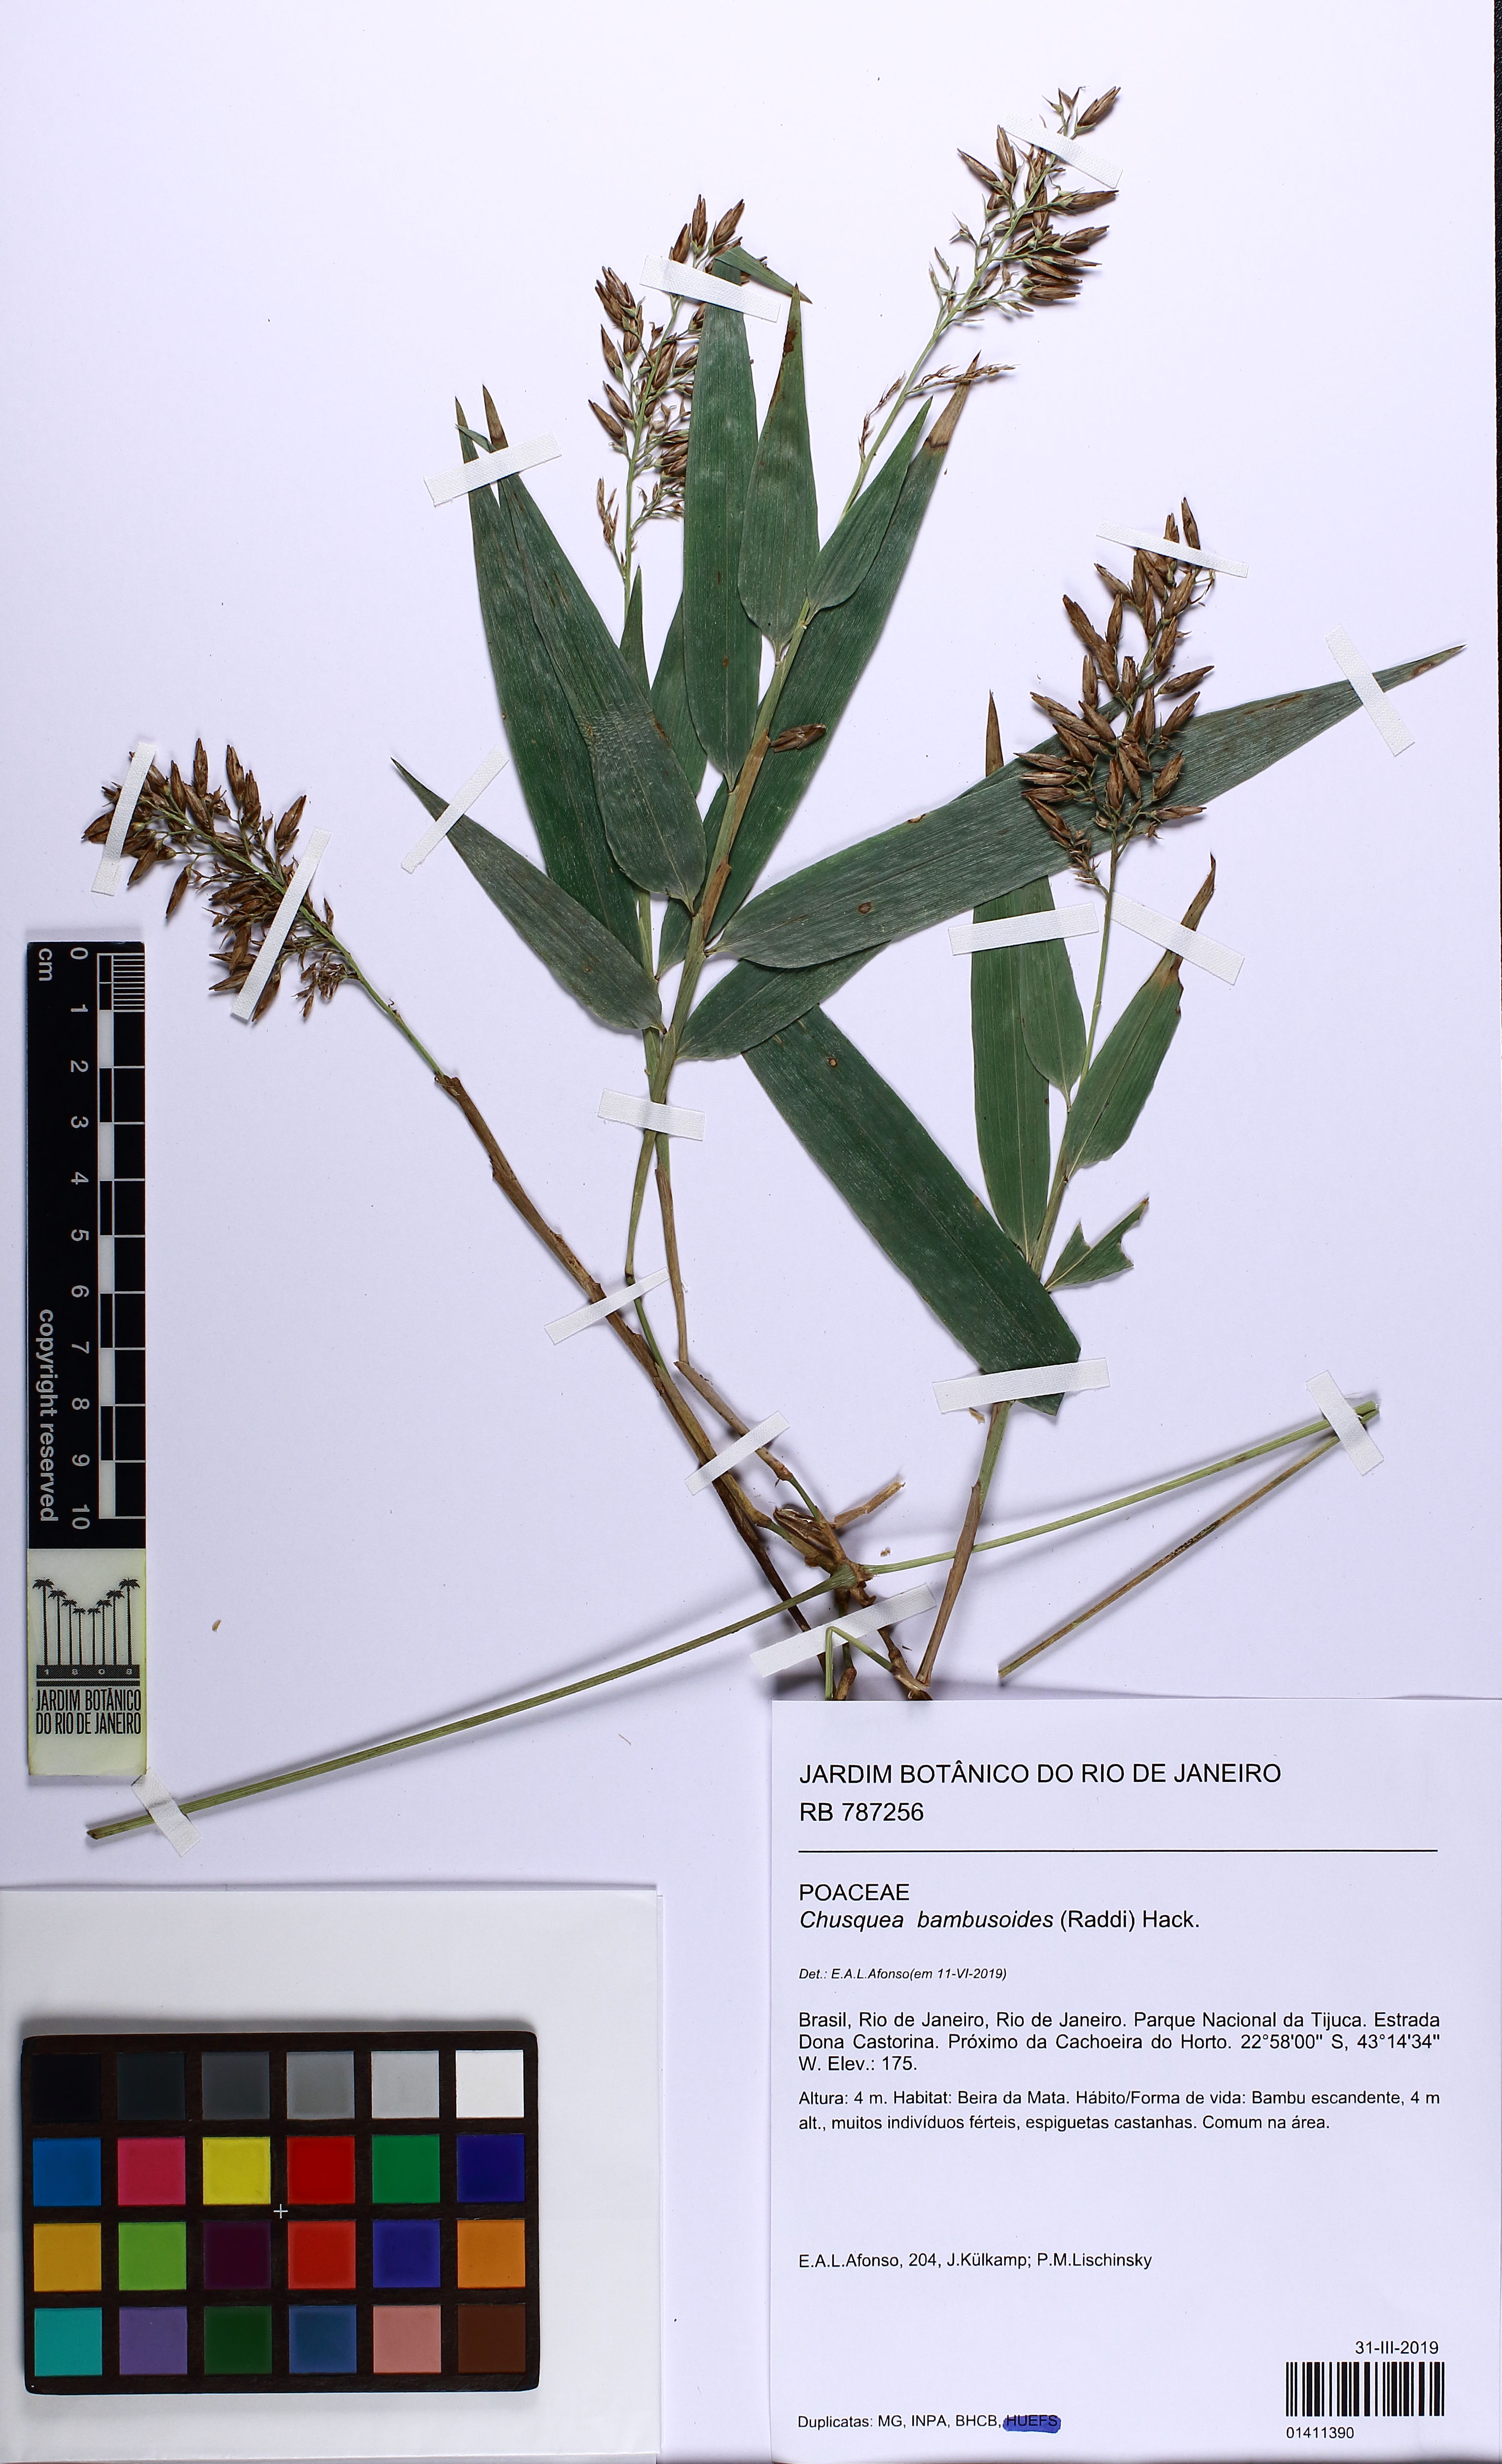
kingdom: Plantae
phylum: Tracheophyta
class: Liliopsida
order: Poales
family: Poaceae
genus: Chusquea
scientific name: Chusquea bambusoides
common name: Brazil scrambling bamboo
